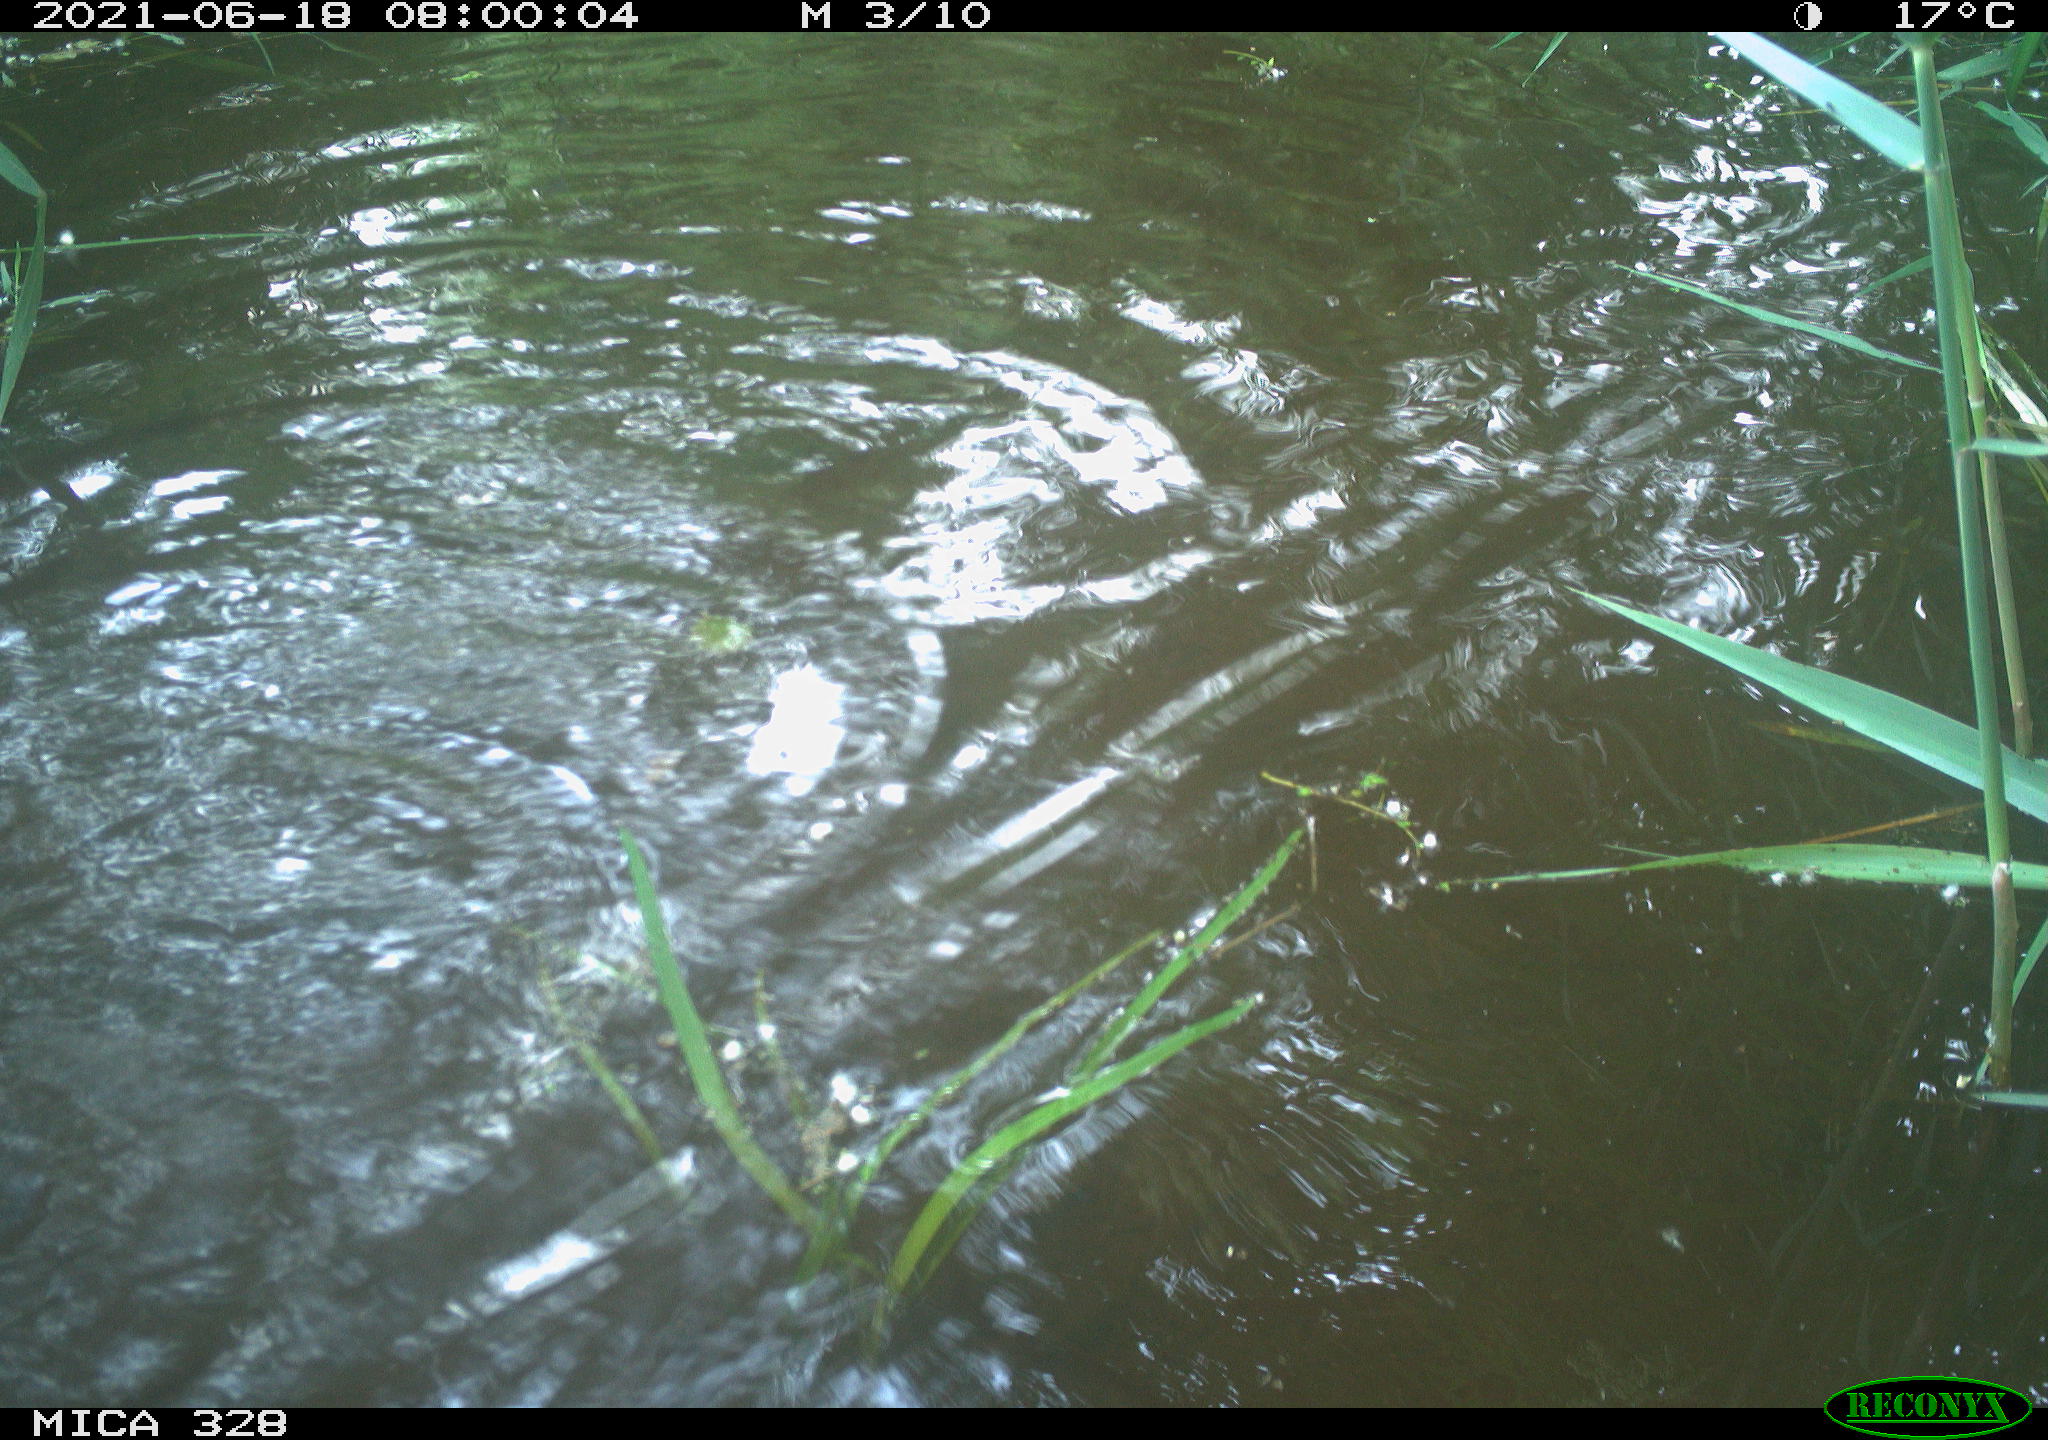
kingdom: Animalia
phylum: Chordata
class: Mammalia
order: Rodentia
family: Cricetidae
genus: Ondatra
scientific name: Ondatra zibethicus
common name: Muskrat
